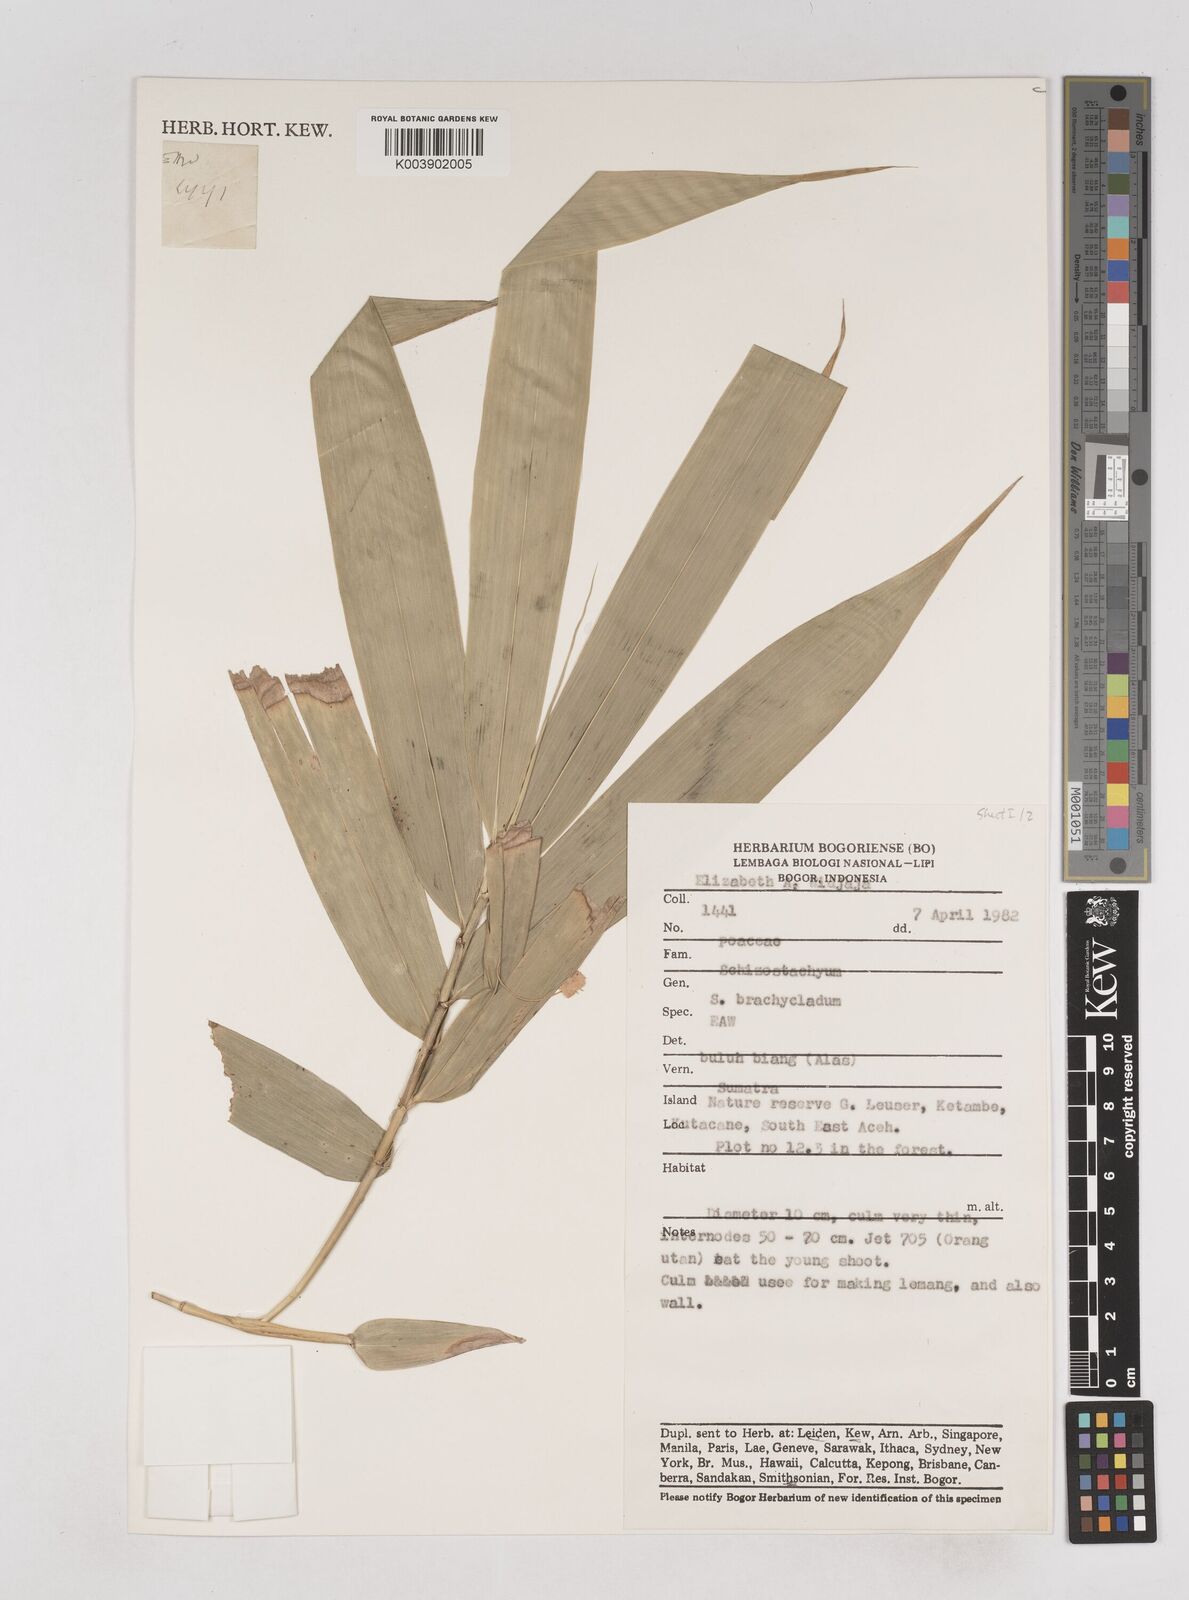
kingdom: Plantae
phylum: Tracheophyta
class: Liliopsida
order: Poales
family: Poaceae
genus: Schizostachyum
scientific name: Schizostachyum brachycladum
